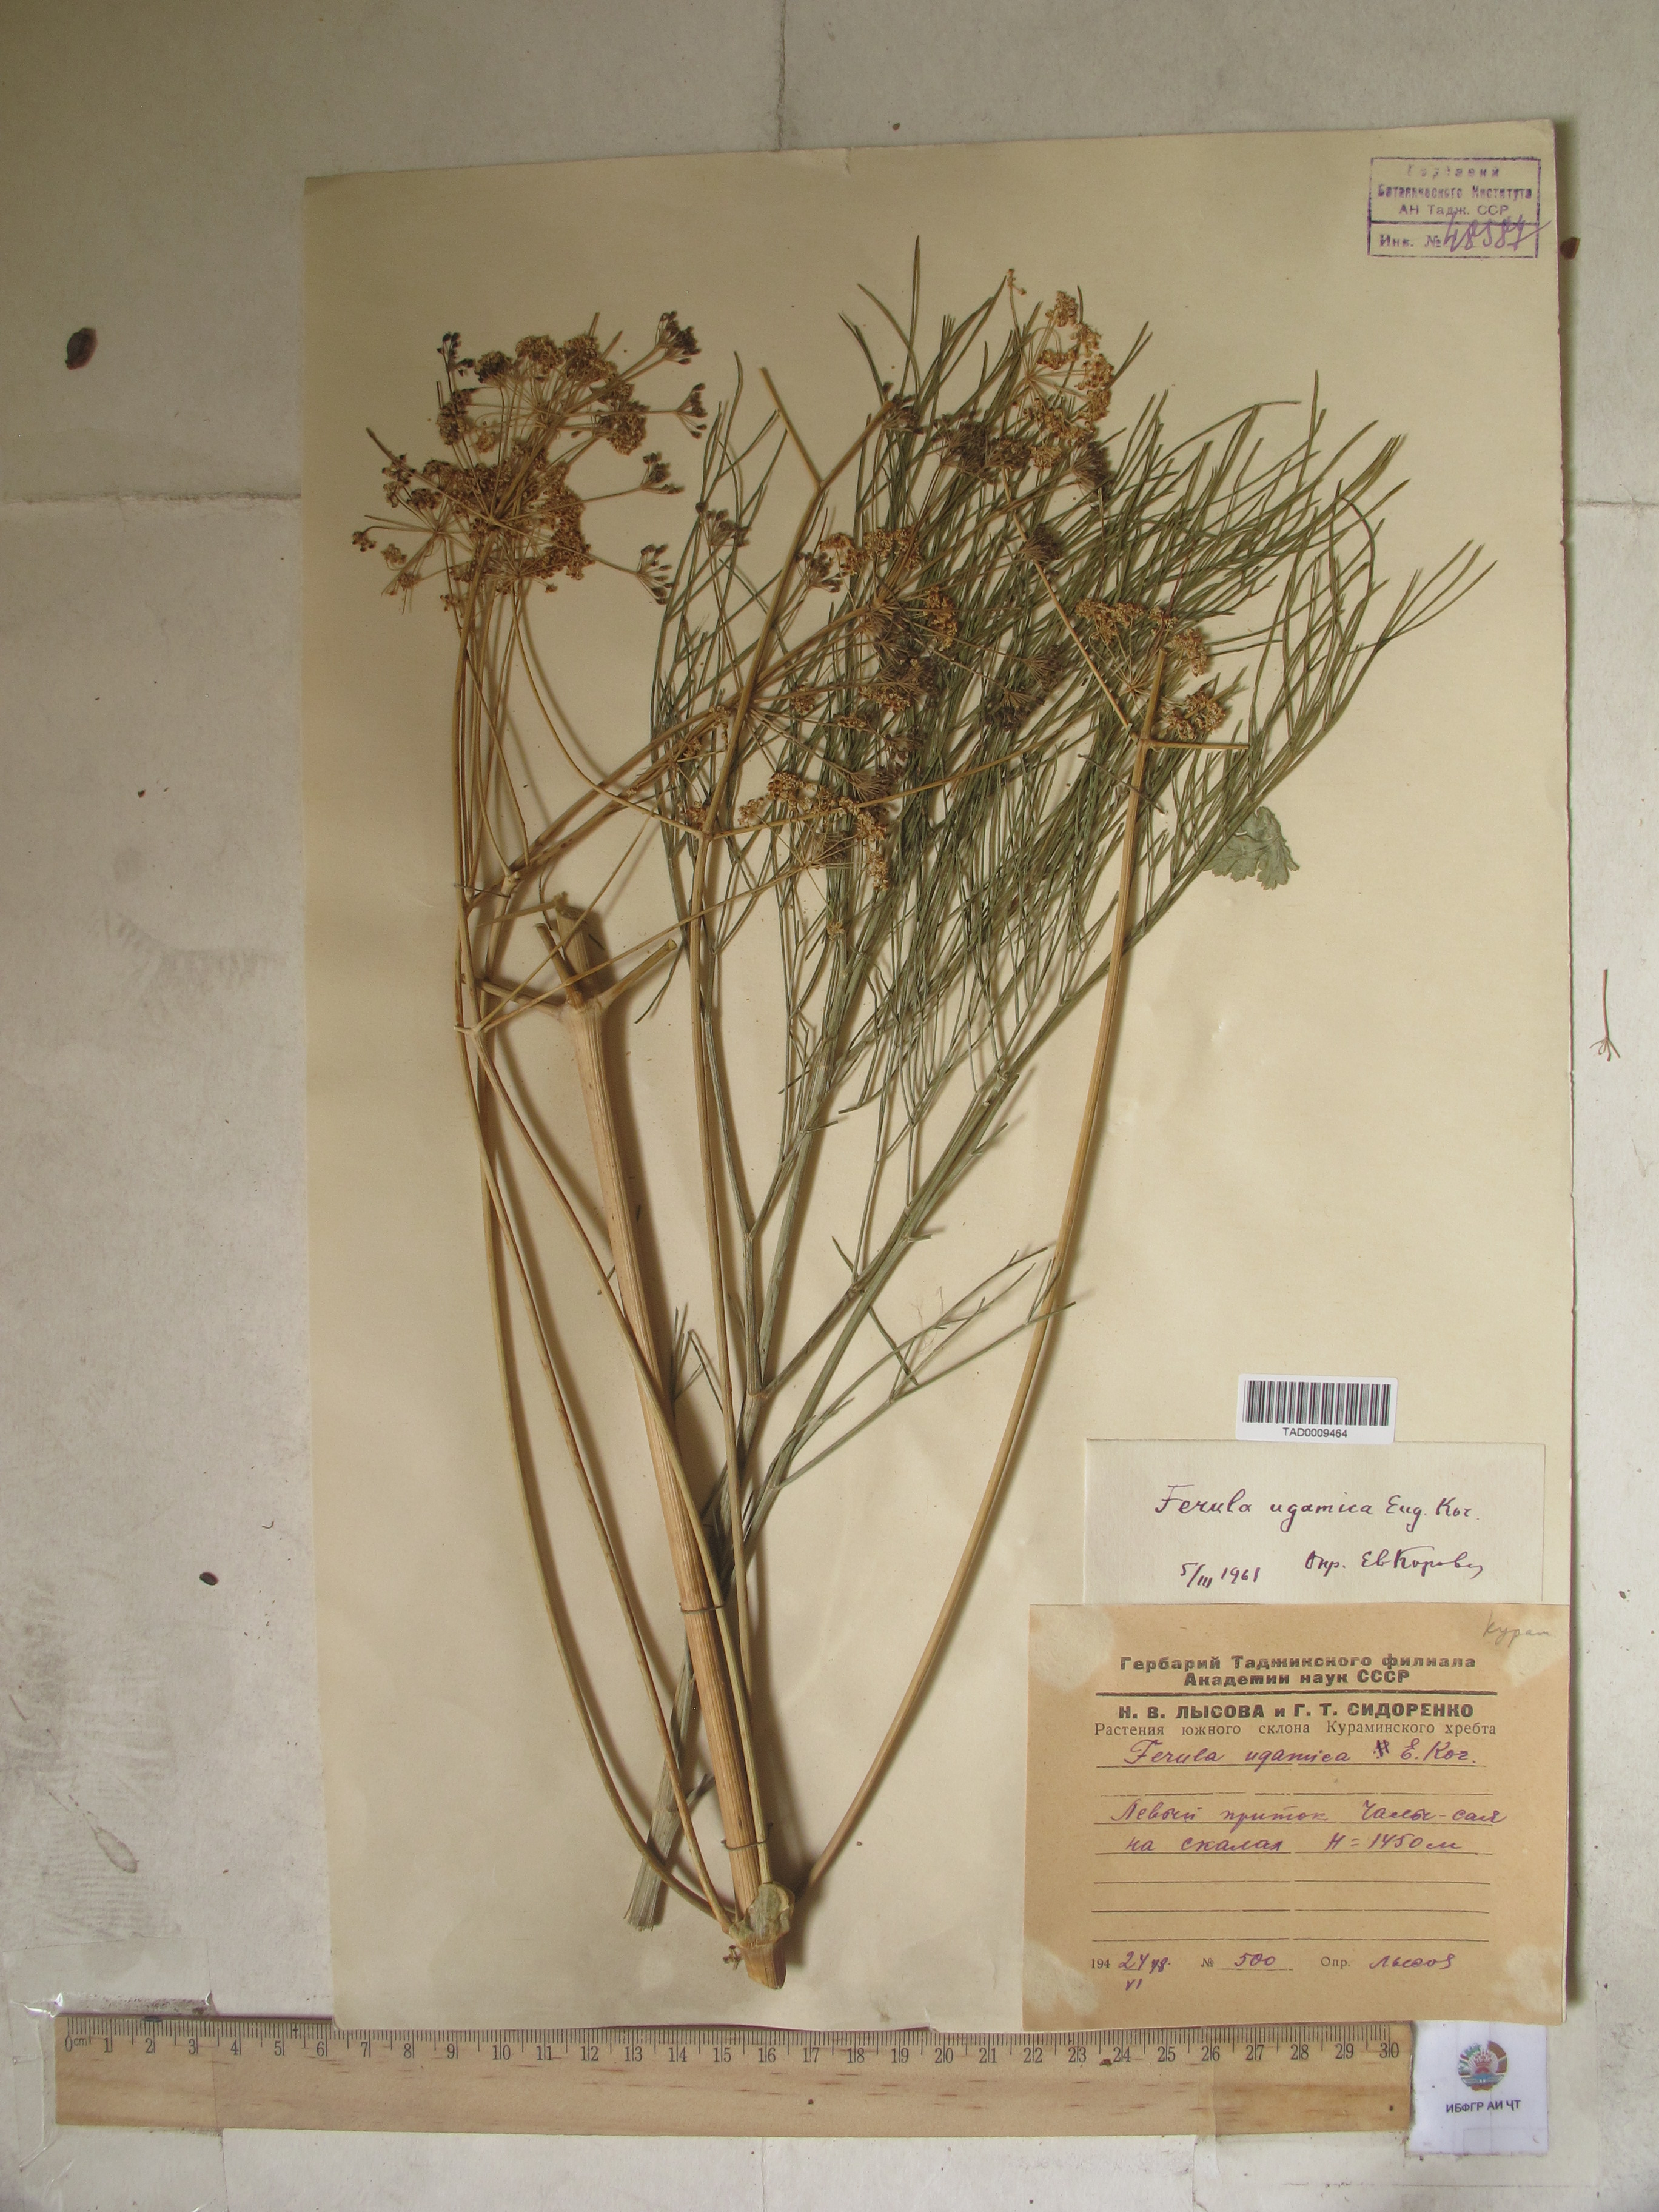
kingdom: Plantae
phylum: Tracheophyta
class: Magnoliopsida
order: Apiales
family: Apiaceae
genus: Ferula
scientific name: Ferula ugamica
